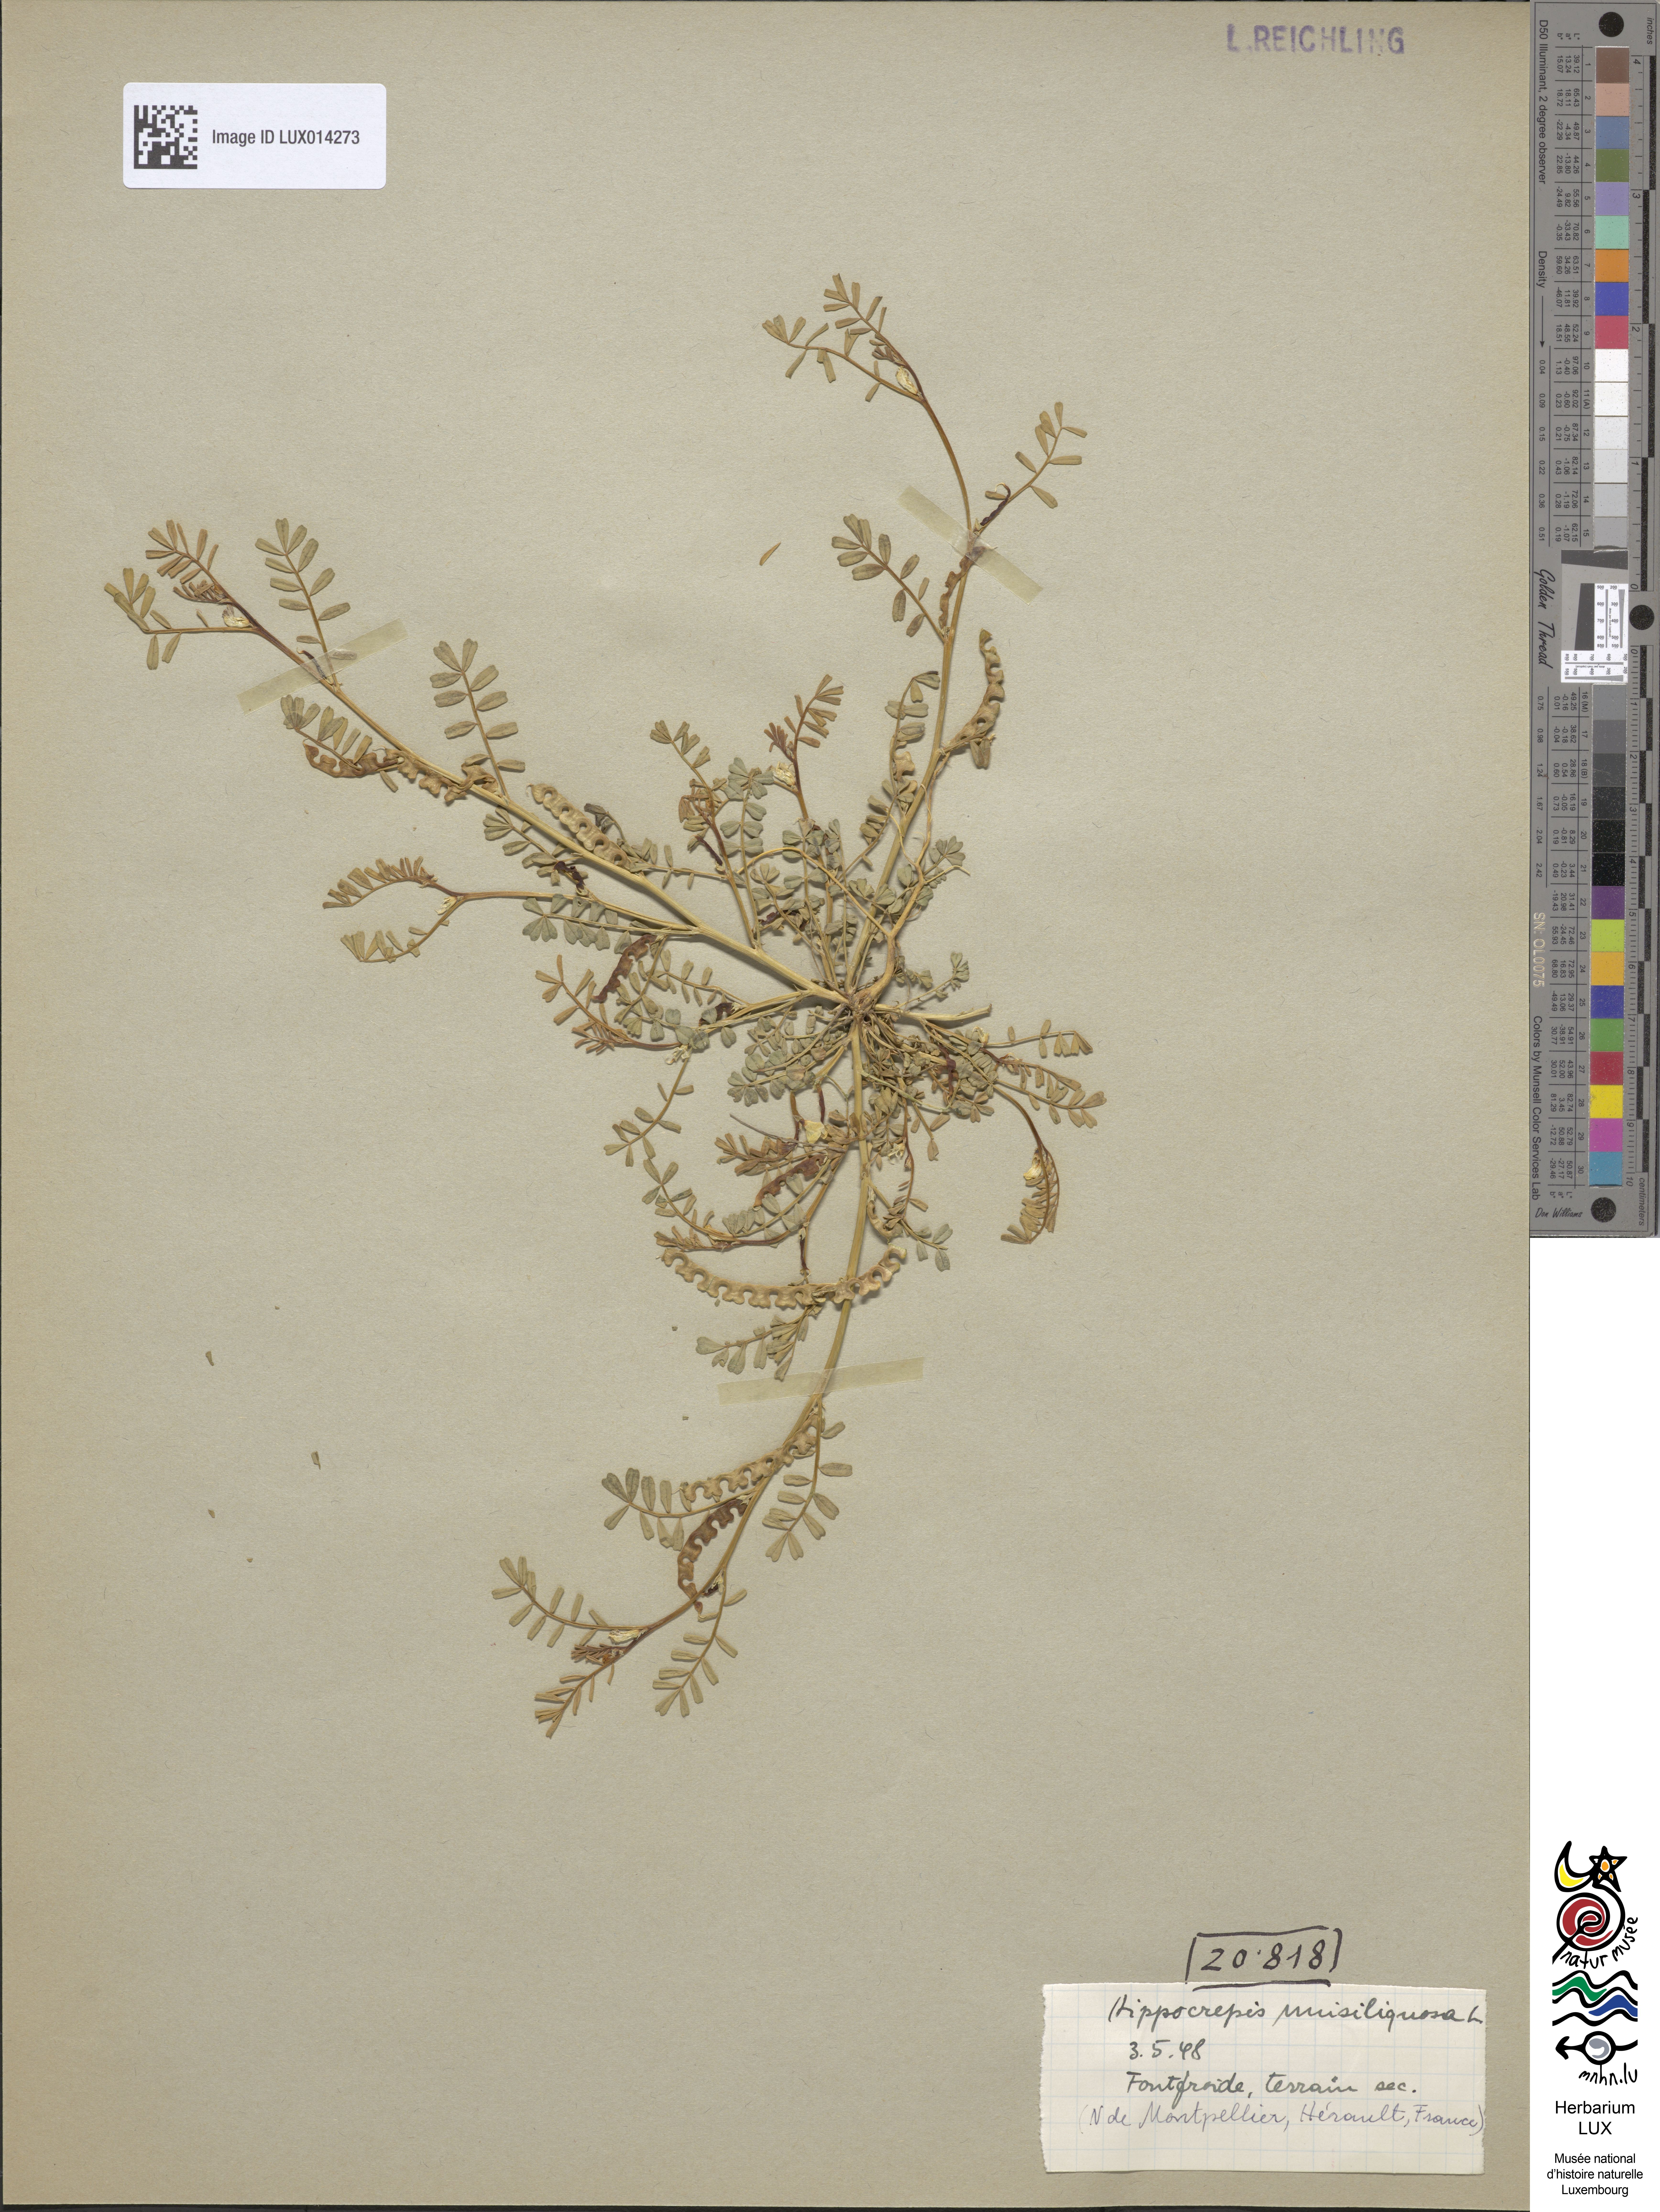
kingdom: Plantae
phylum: Tracheophyta
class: Magnoliopsida
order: Fabales
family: Fabaceae
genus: Hippocrepis
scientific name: Hippocrepis unisiliquosa
